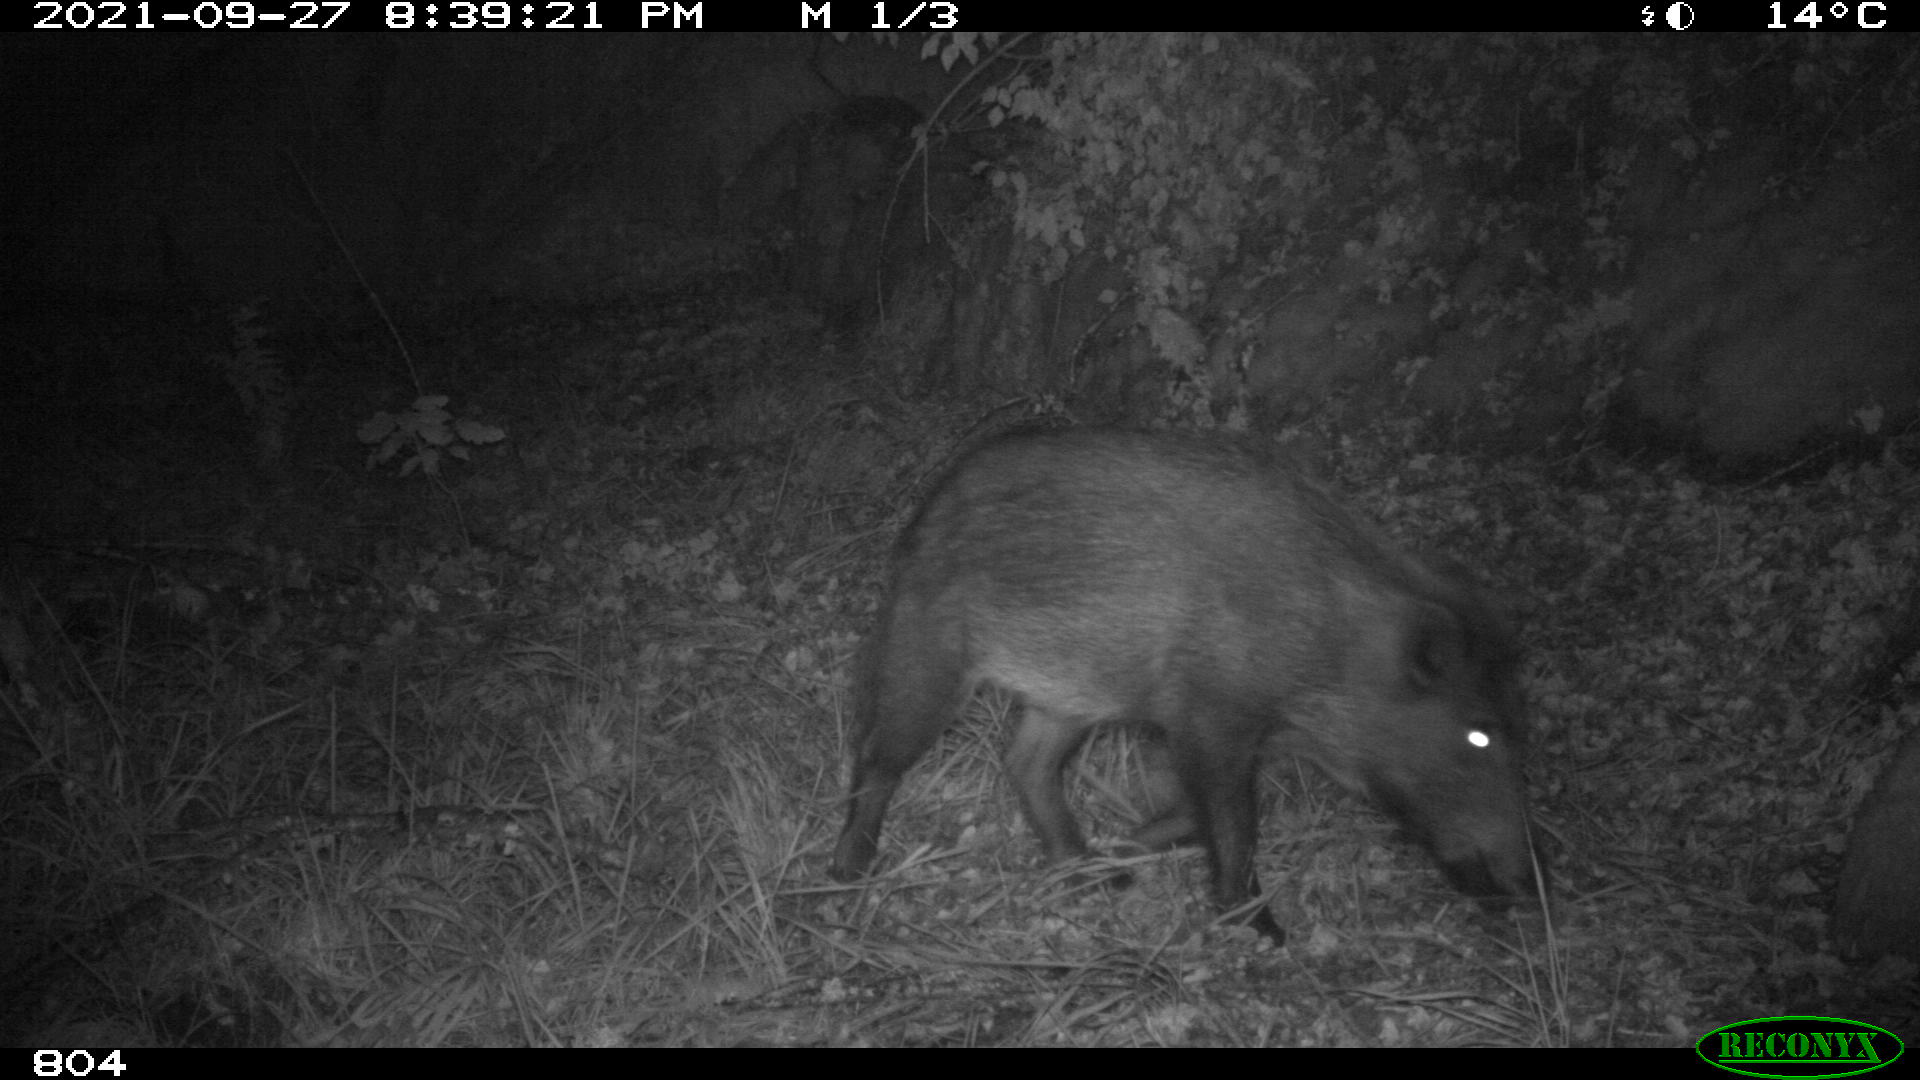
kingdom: Animalia
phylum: Chordata
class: Mammalia
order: Artiodactyla
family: Suidae
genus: Sus
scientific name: Sus scrofa
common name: Wild boar
